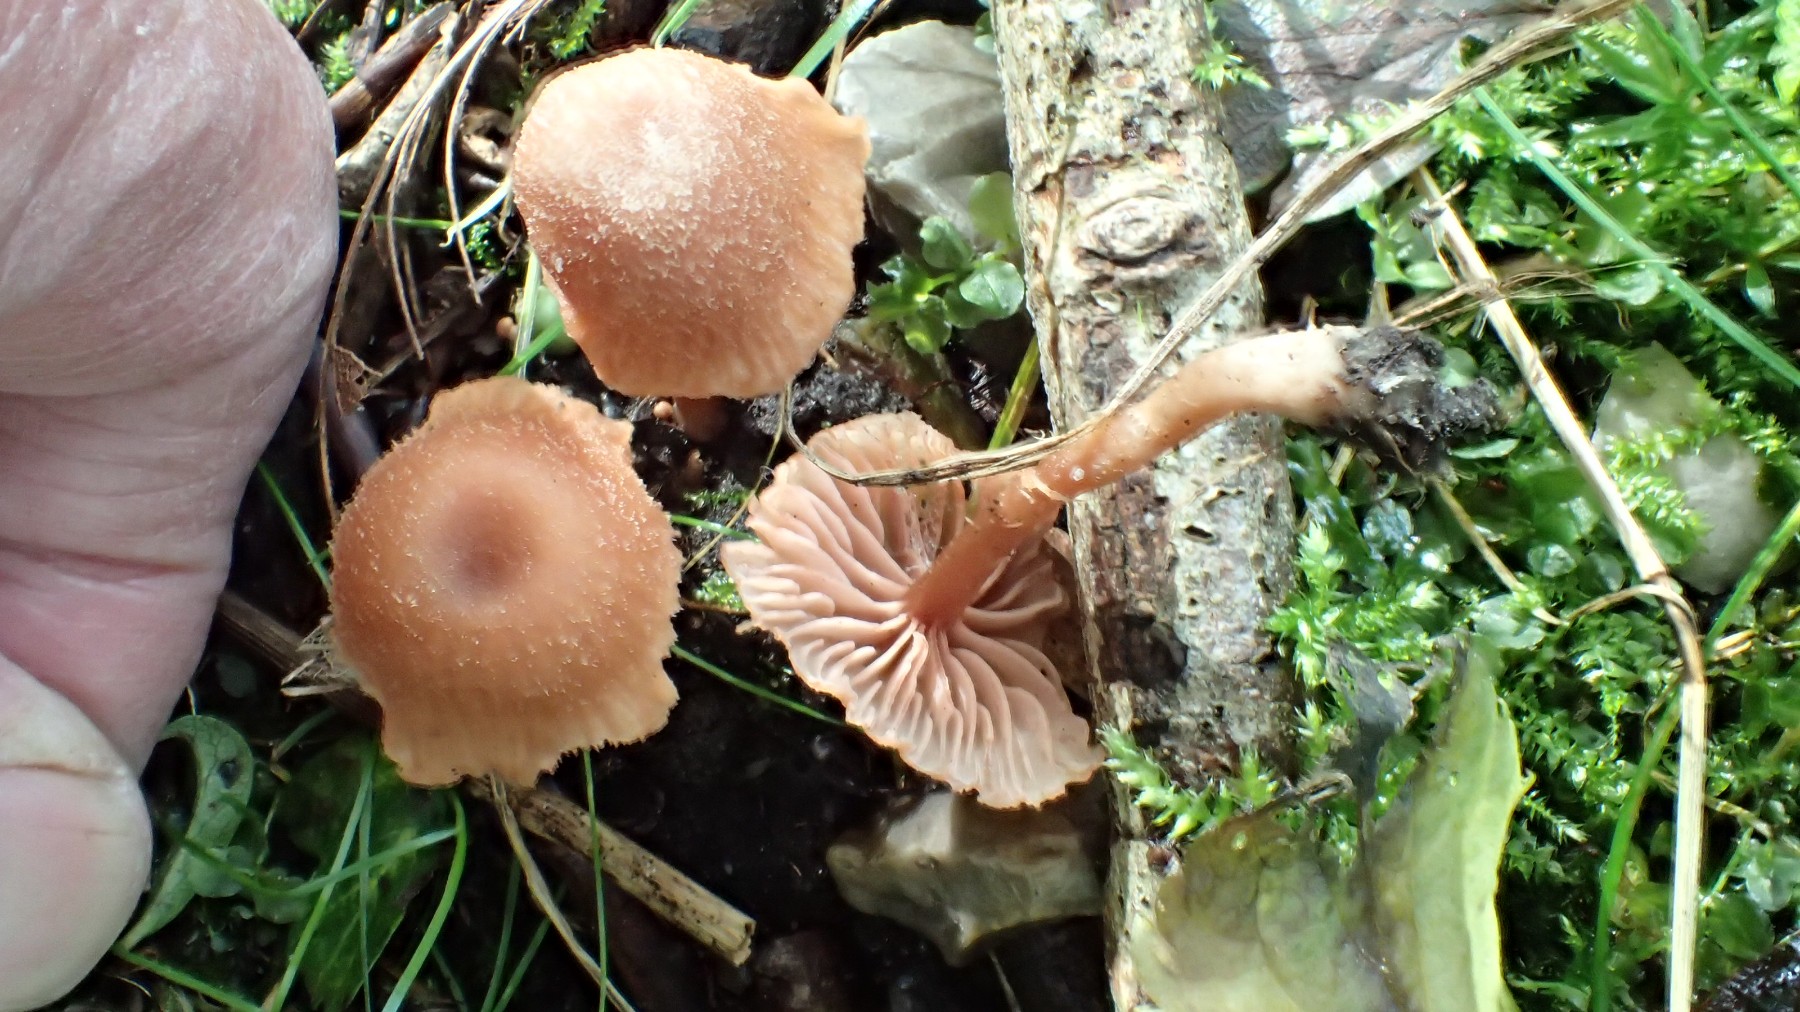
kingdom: Fungi
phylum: Basidiomycota
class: Agaricomycetes
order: Agaricales
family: Hydnangiaceae
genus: Laccaria
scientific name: Laccaria laccata
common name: rød ametysthat
